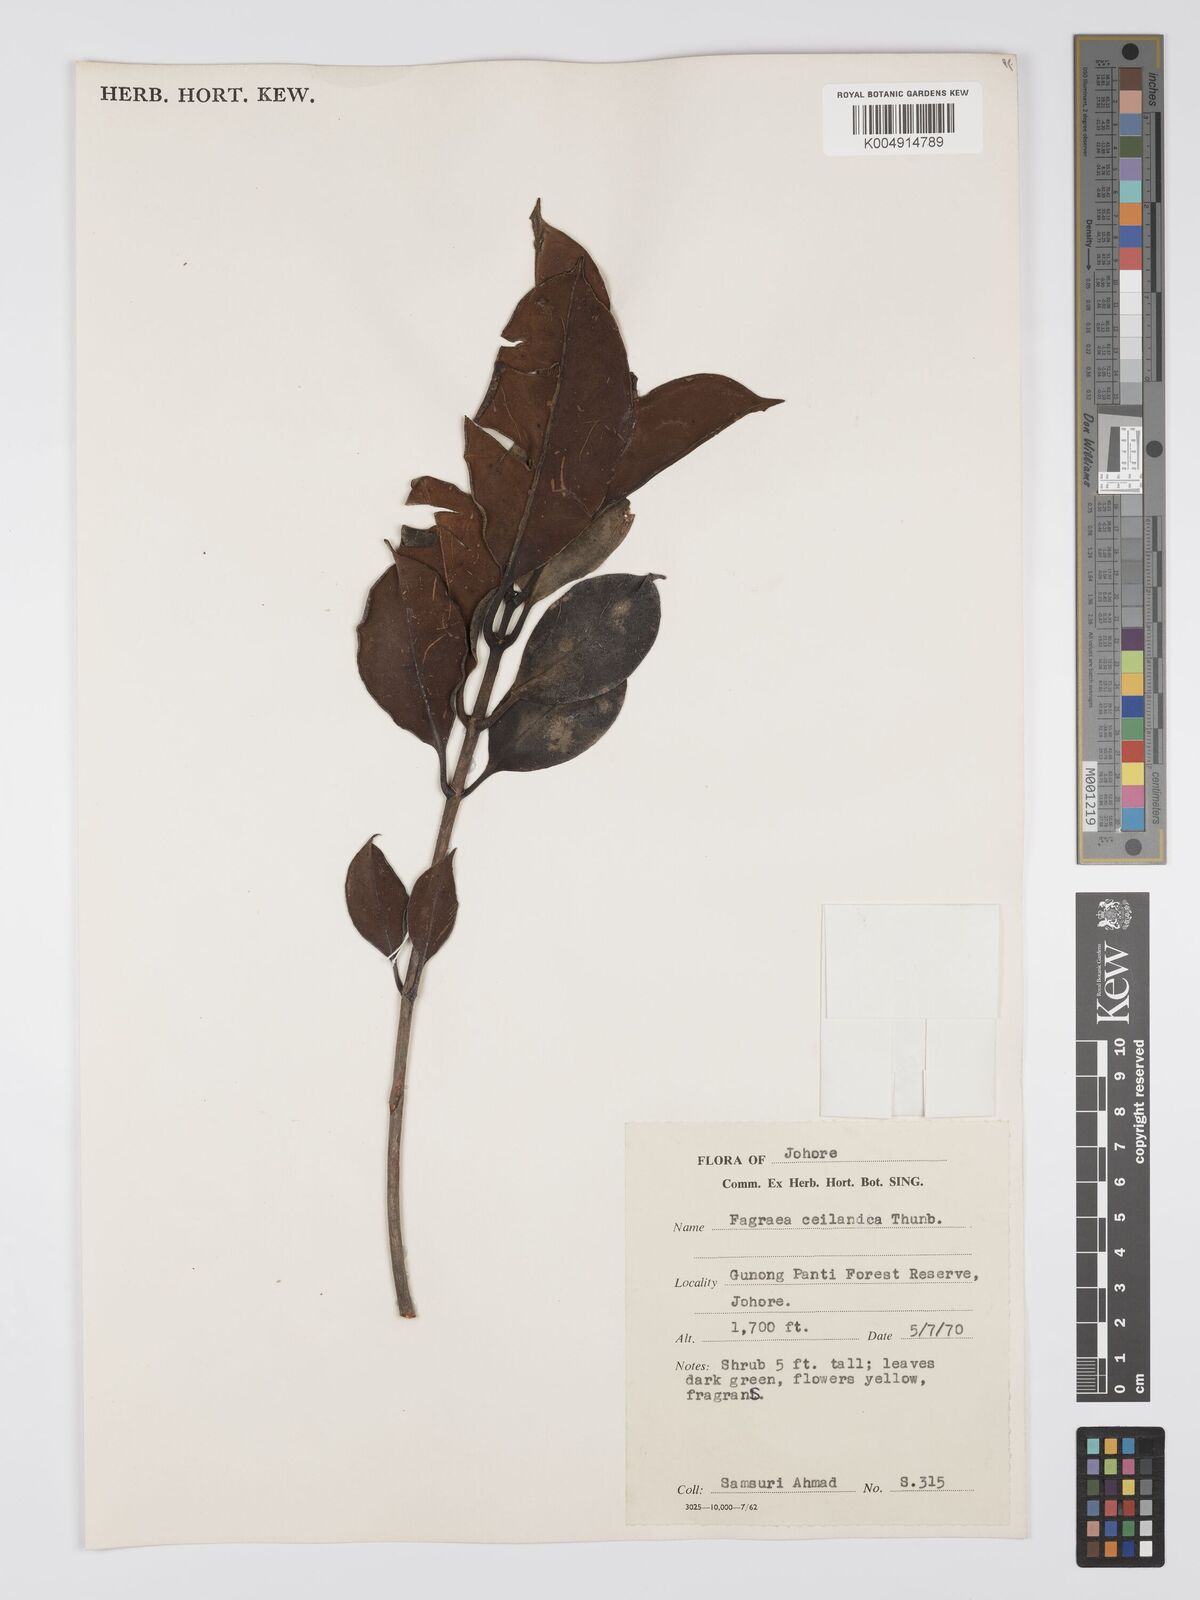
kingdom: Plantae
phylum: Tracheophyta
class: Magnoliopsida
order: Gentianales
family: Gentianaceae
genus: Fagraea
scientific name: Fagraea oblonga
